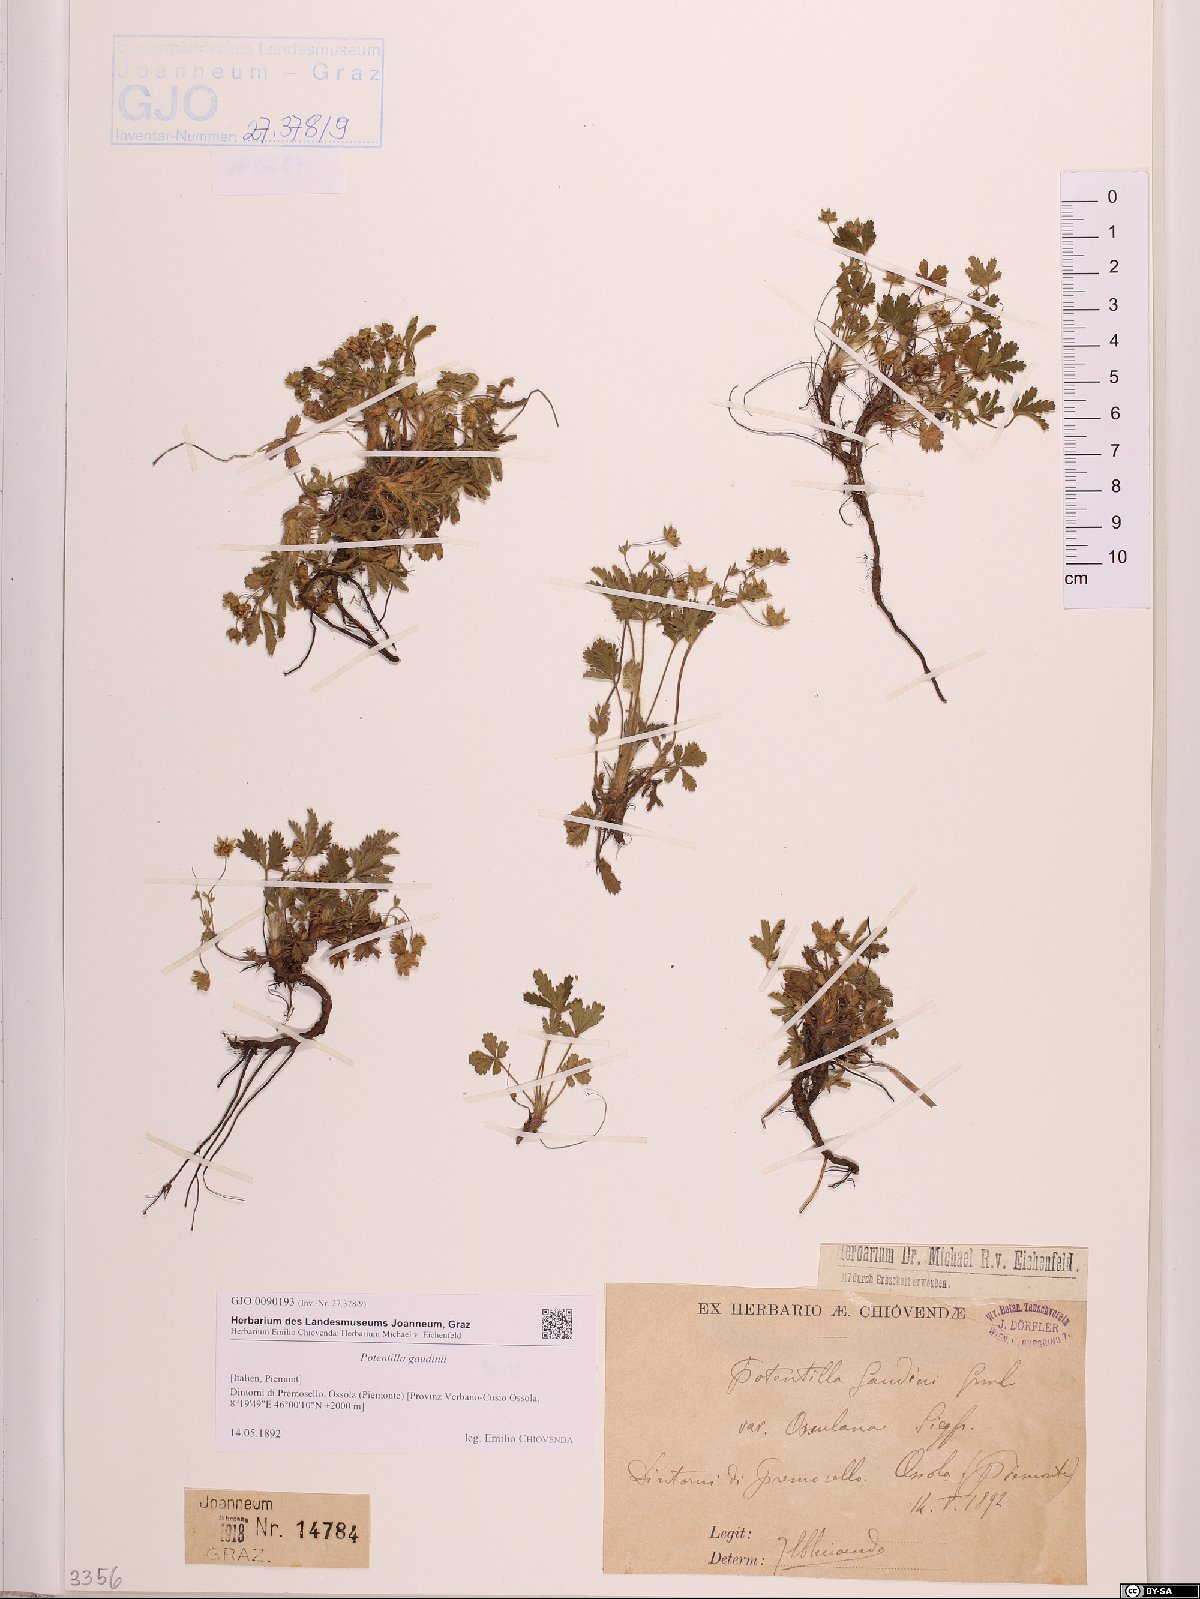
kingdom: Plantae
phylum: Tracheophyta
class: Magnoliopsida
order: Rosales
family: Rosaceae
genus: Potentilla
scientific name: Potentilla pusilla
